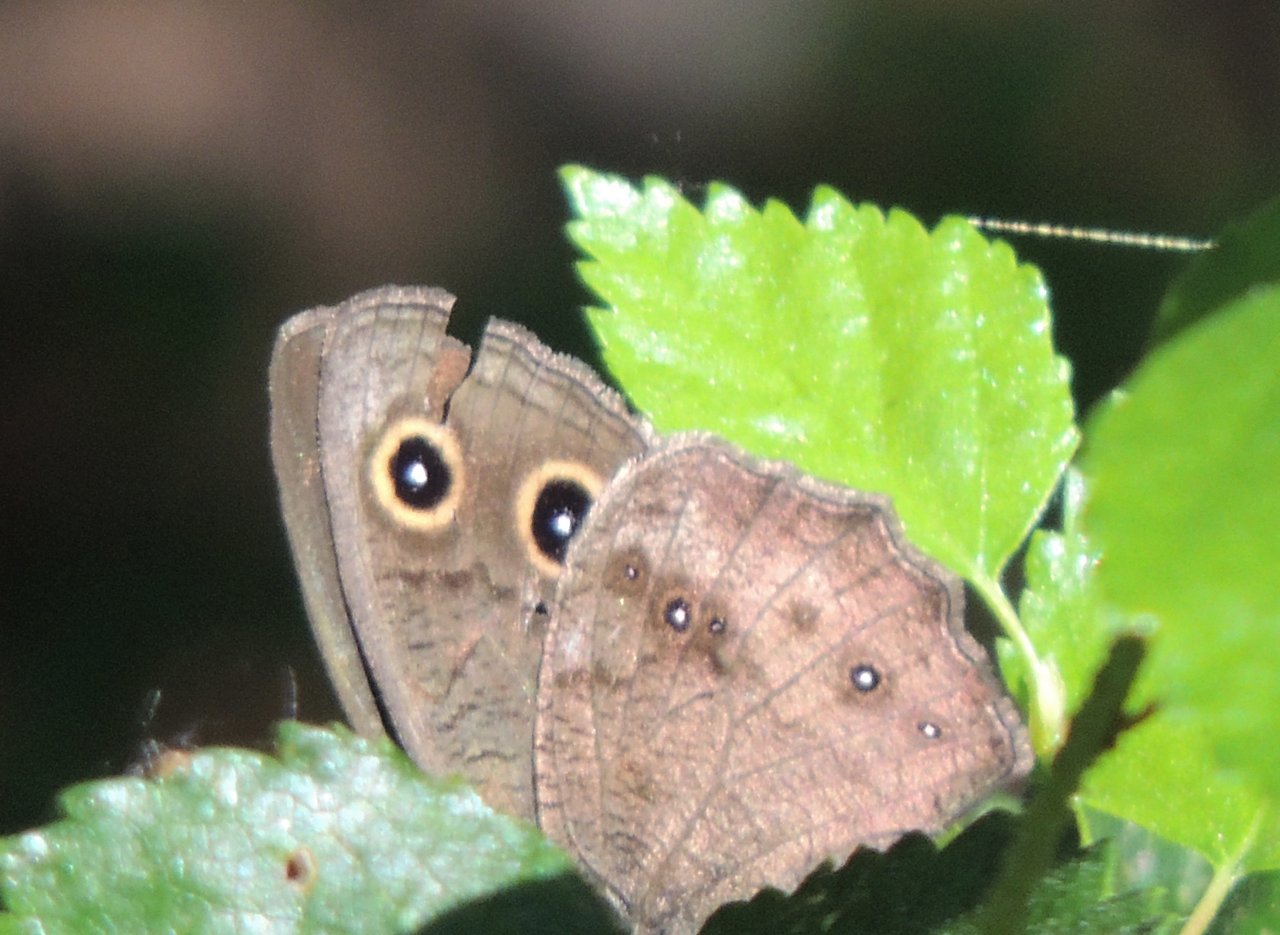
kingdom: Animalia
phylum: Arthropoda
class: Insecta
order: Lepidoptera
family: Nymphalidae
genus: Cercyonis
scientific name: Cercyonis pegala
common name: Common Wood-Nymph
